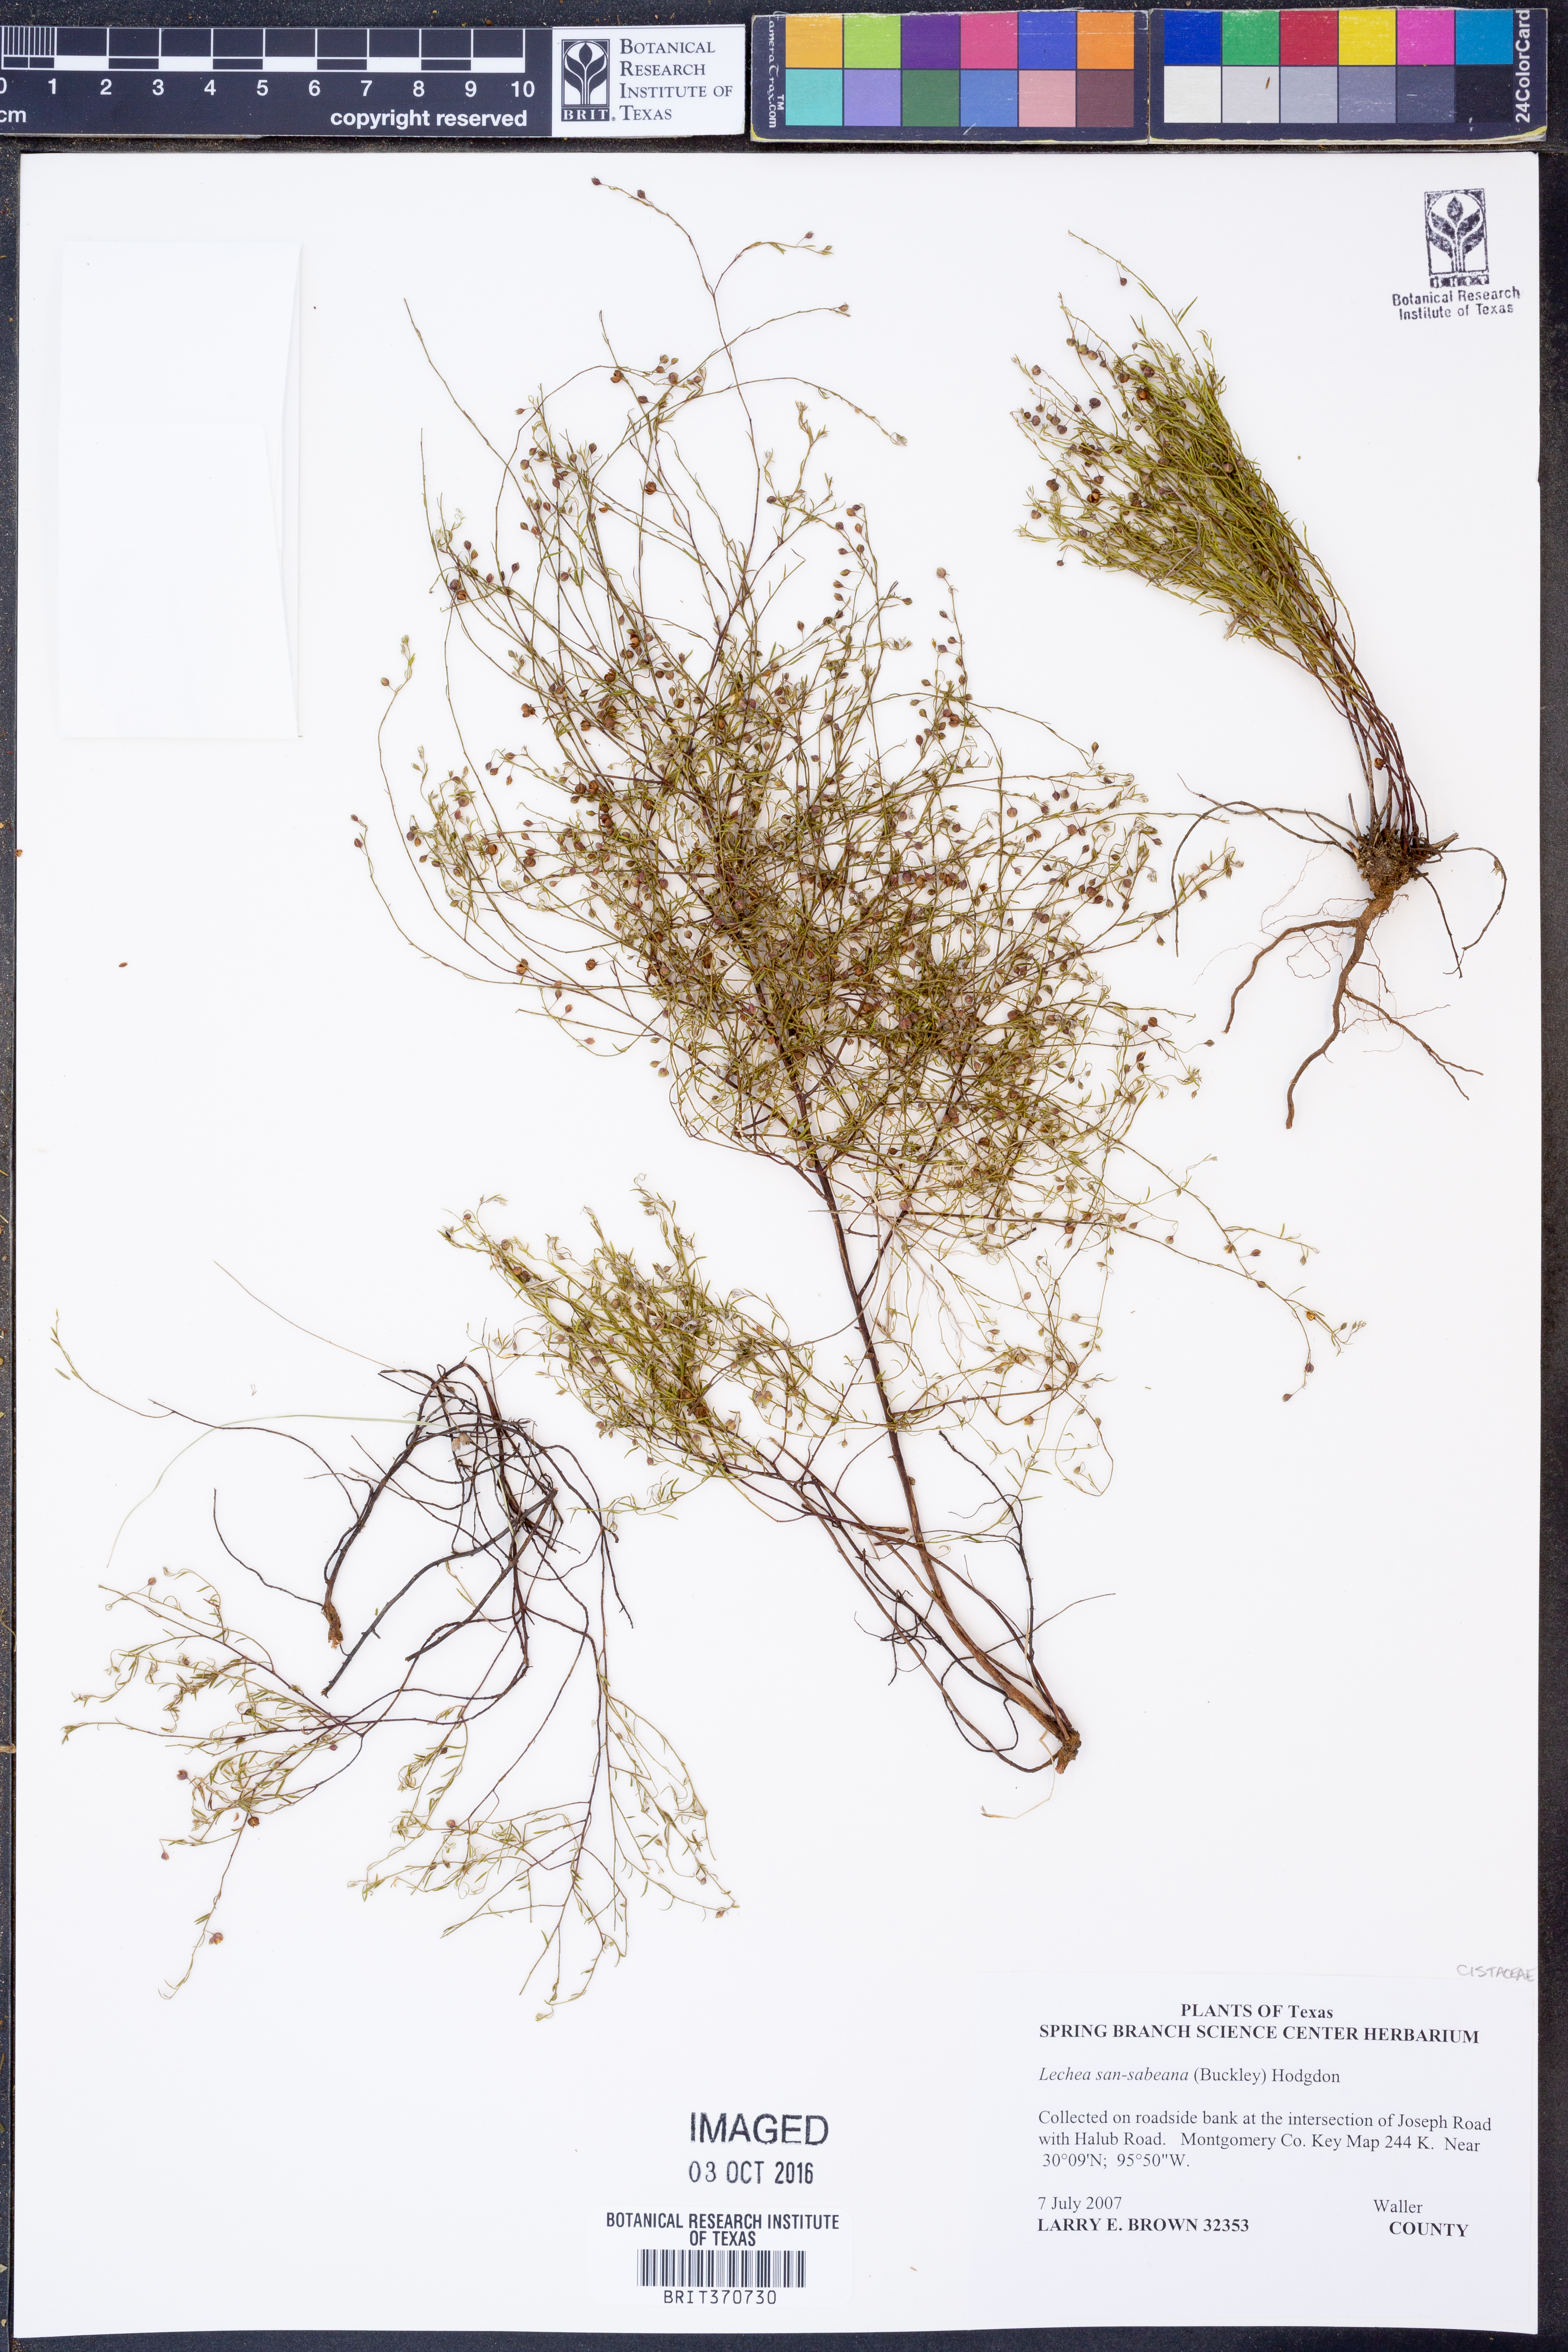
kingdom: Plantae
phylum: Tracheophyta
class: Magnoliopsida
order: Malvales
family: Cistaceae
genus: Lechea
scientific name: Lechea san-sabeana
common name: San saba pinweed
